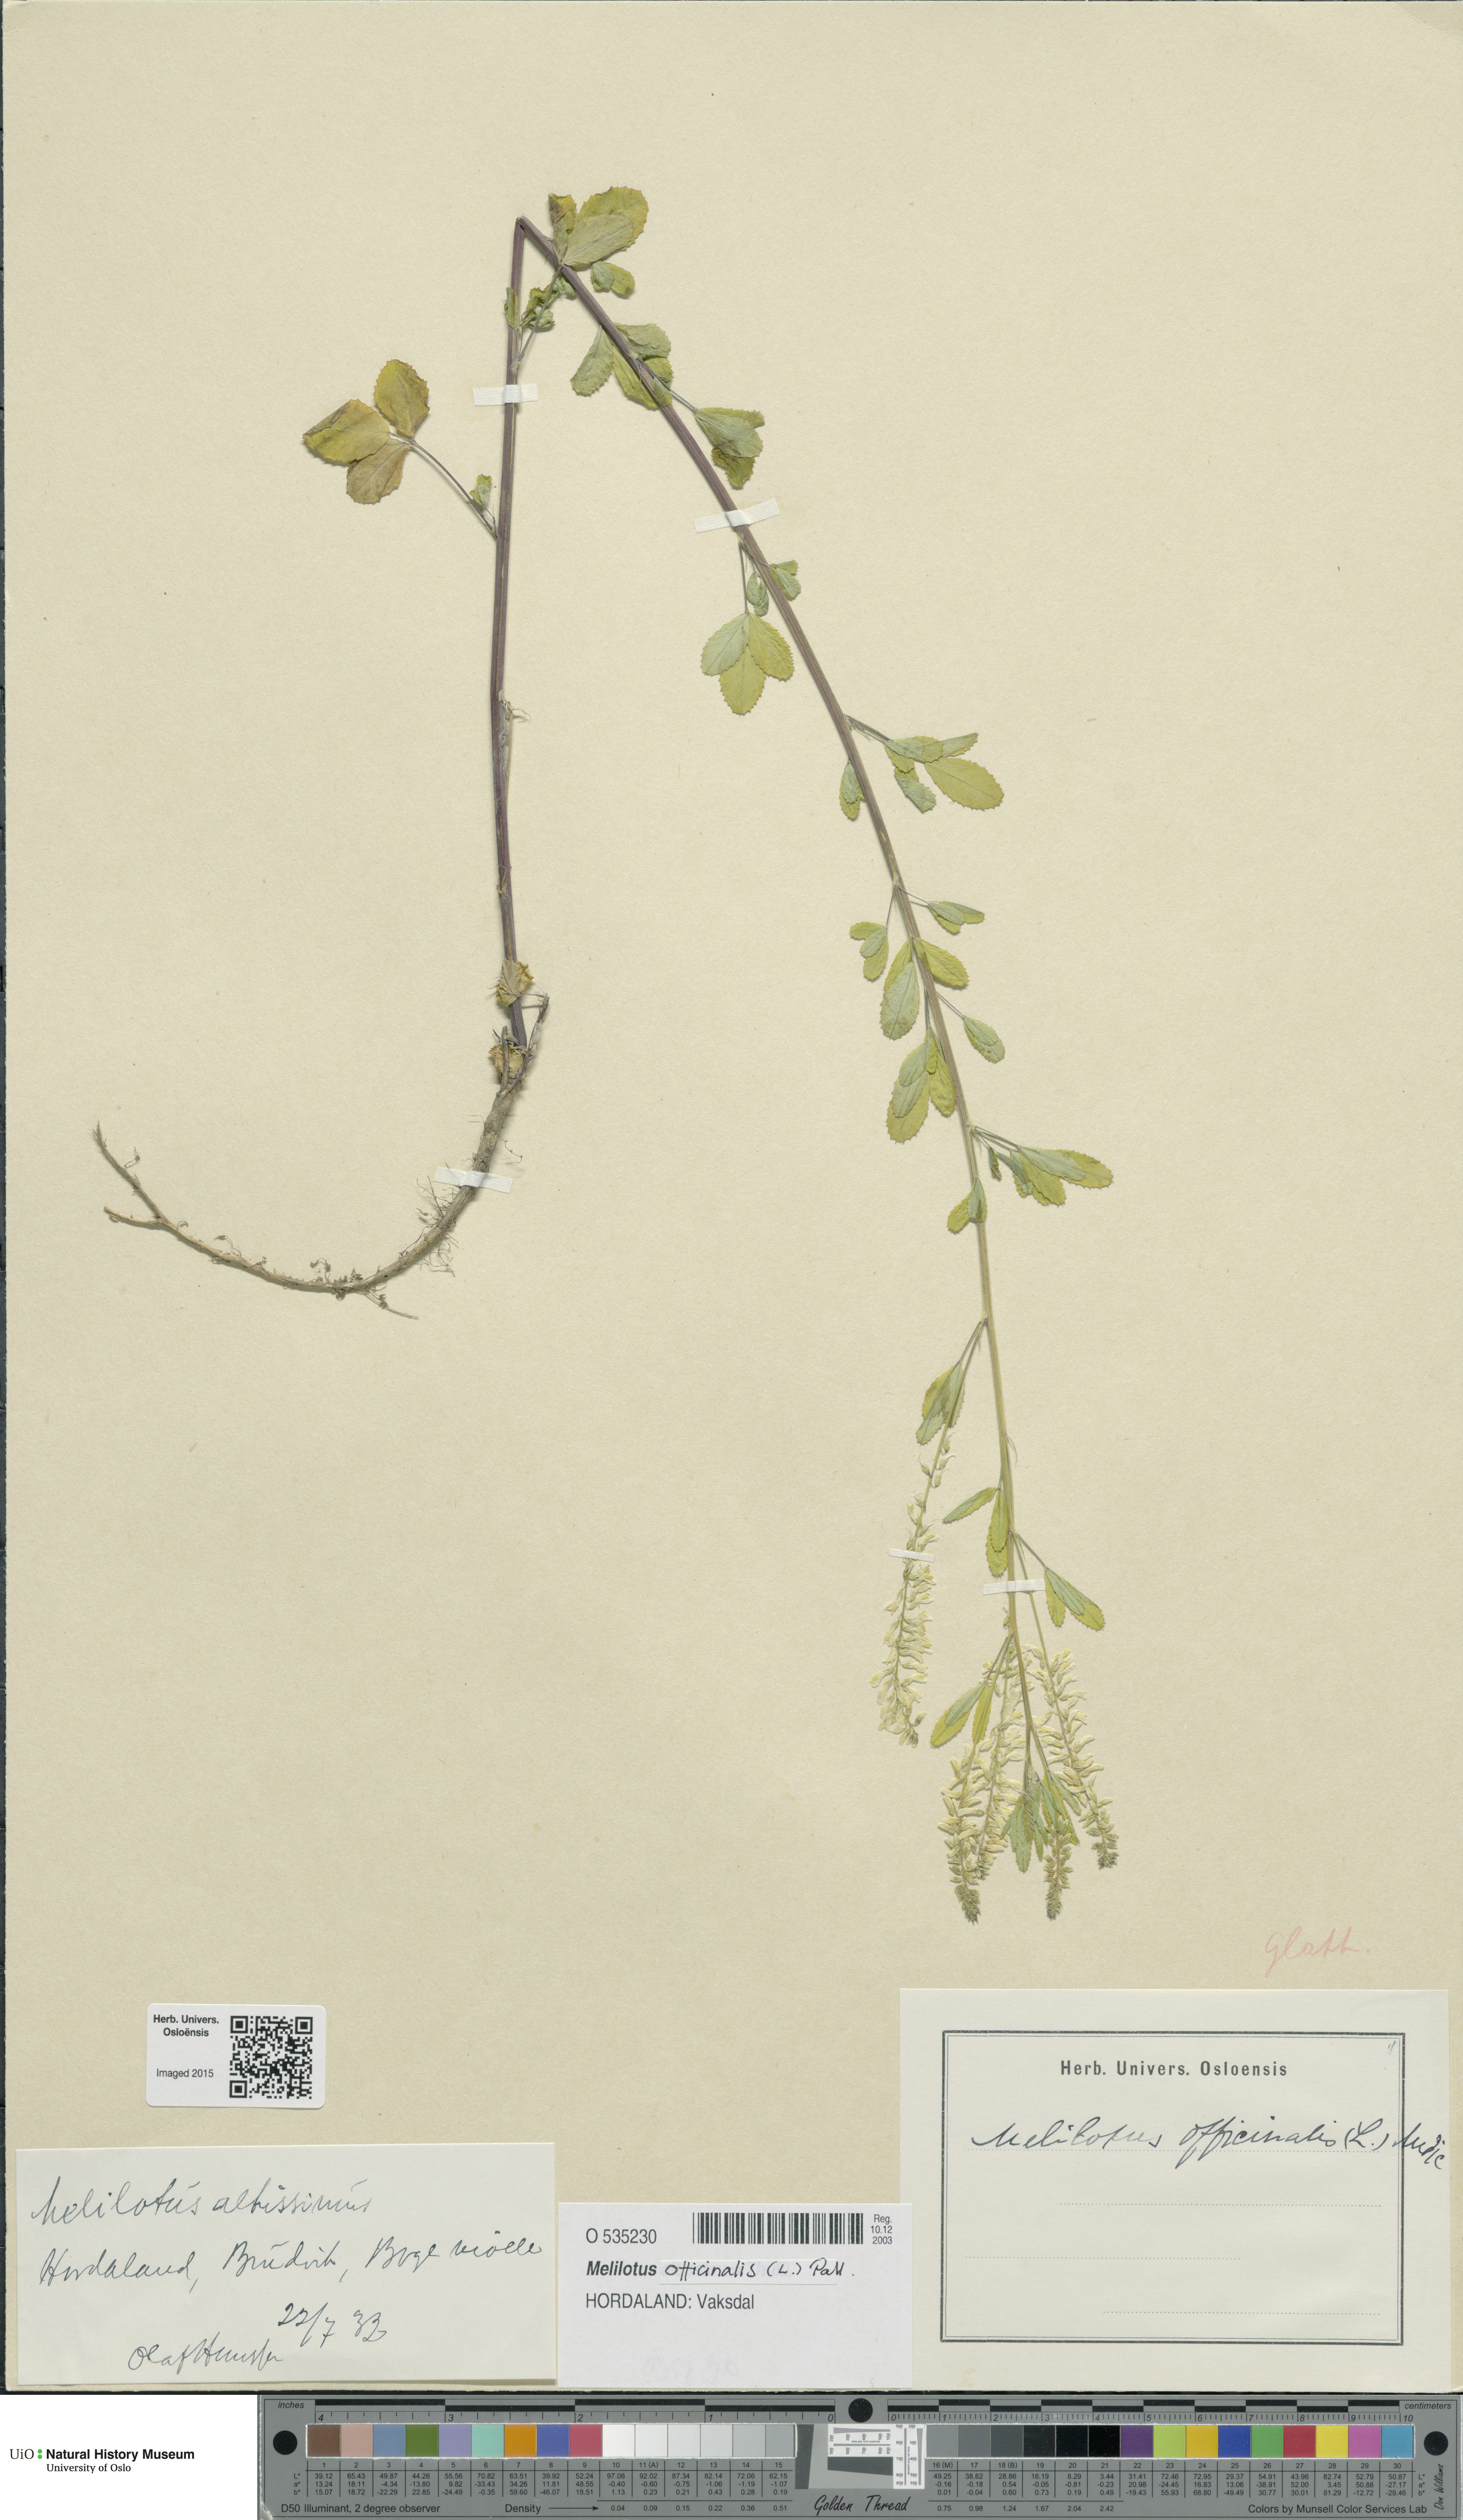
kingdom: Plantae
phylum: Tracheophyta
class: Magnoliopsida
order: Fabales
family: Fabaceae
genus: Melilotus
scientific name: Melilotus officinalis
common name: Sweetclover
